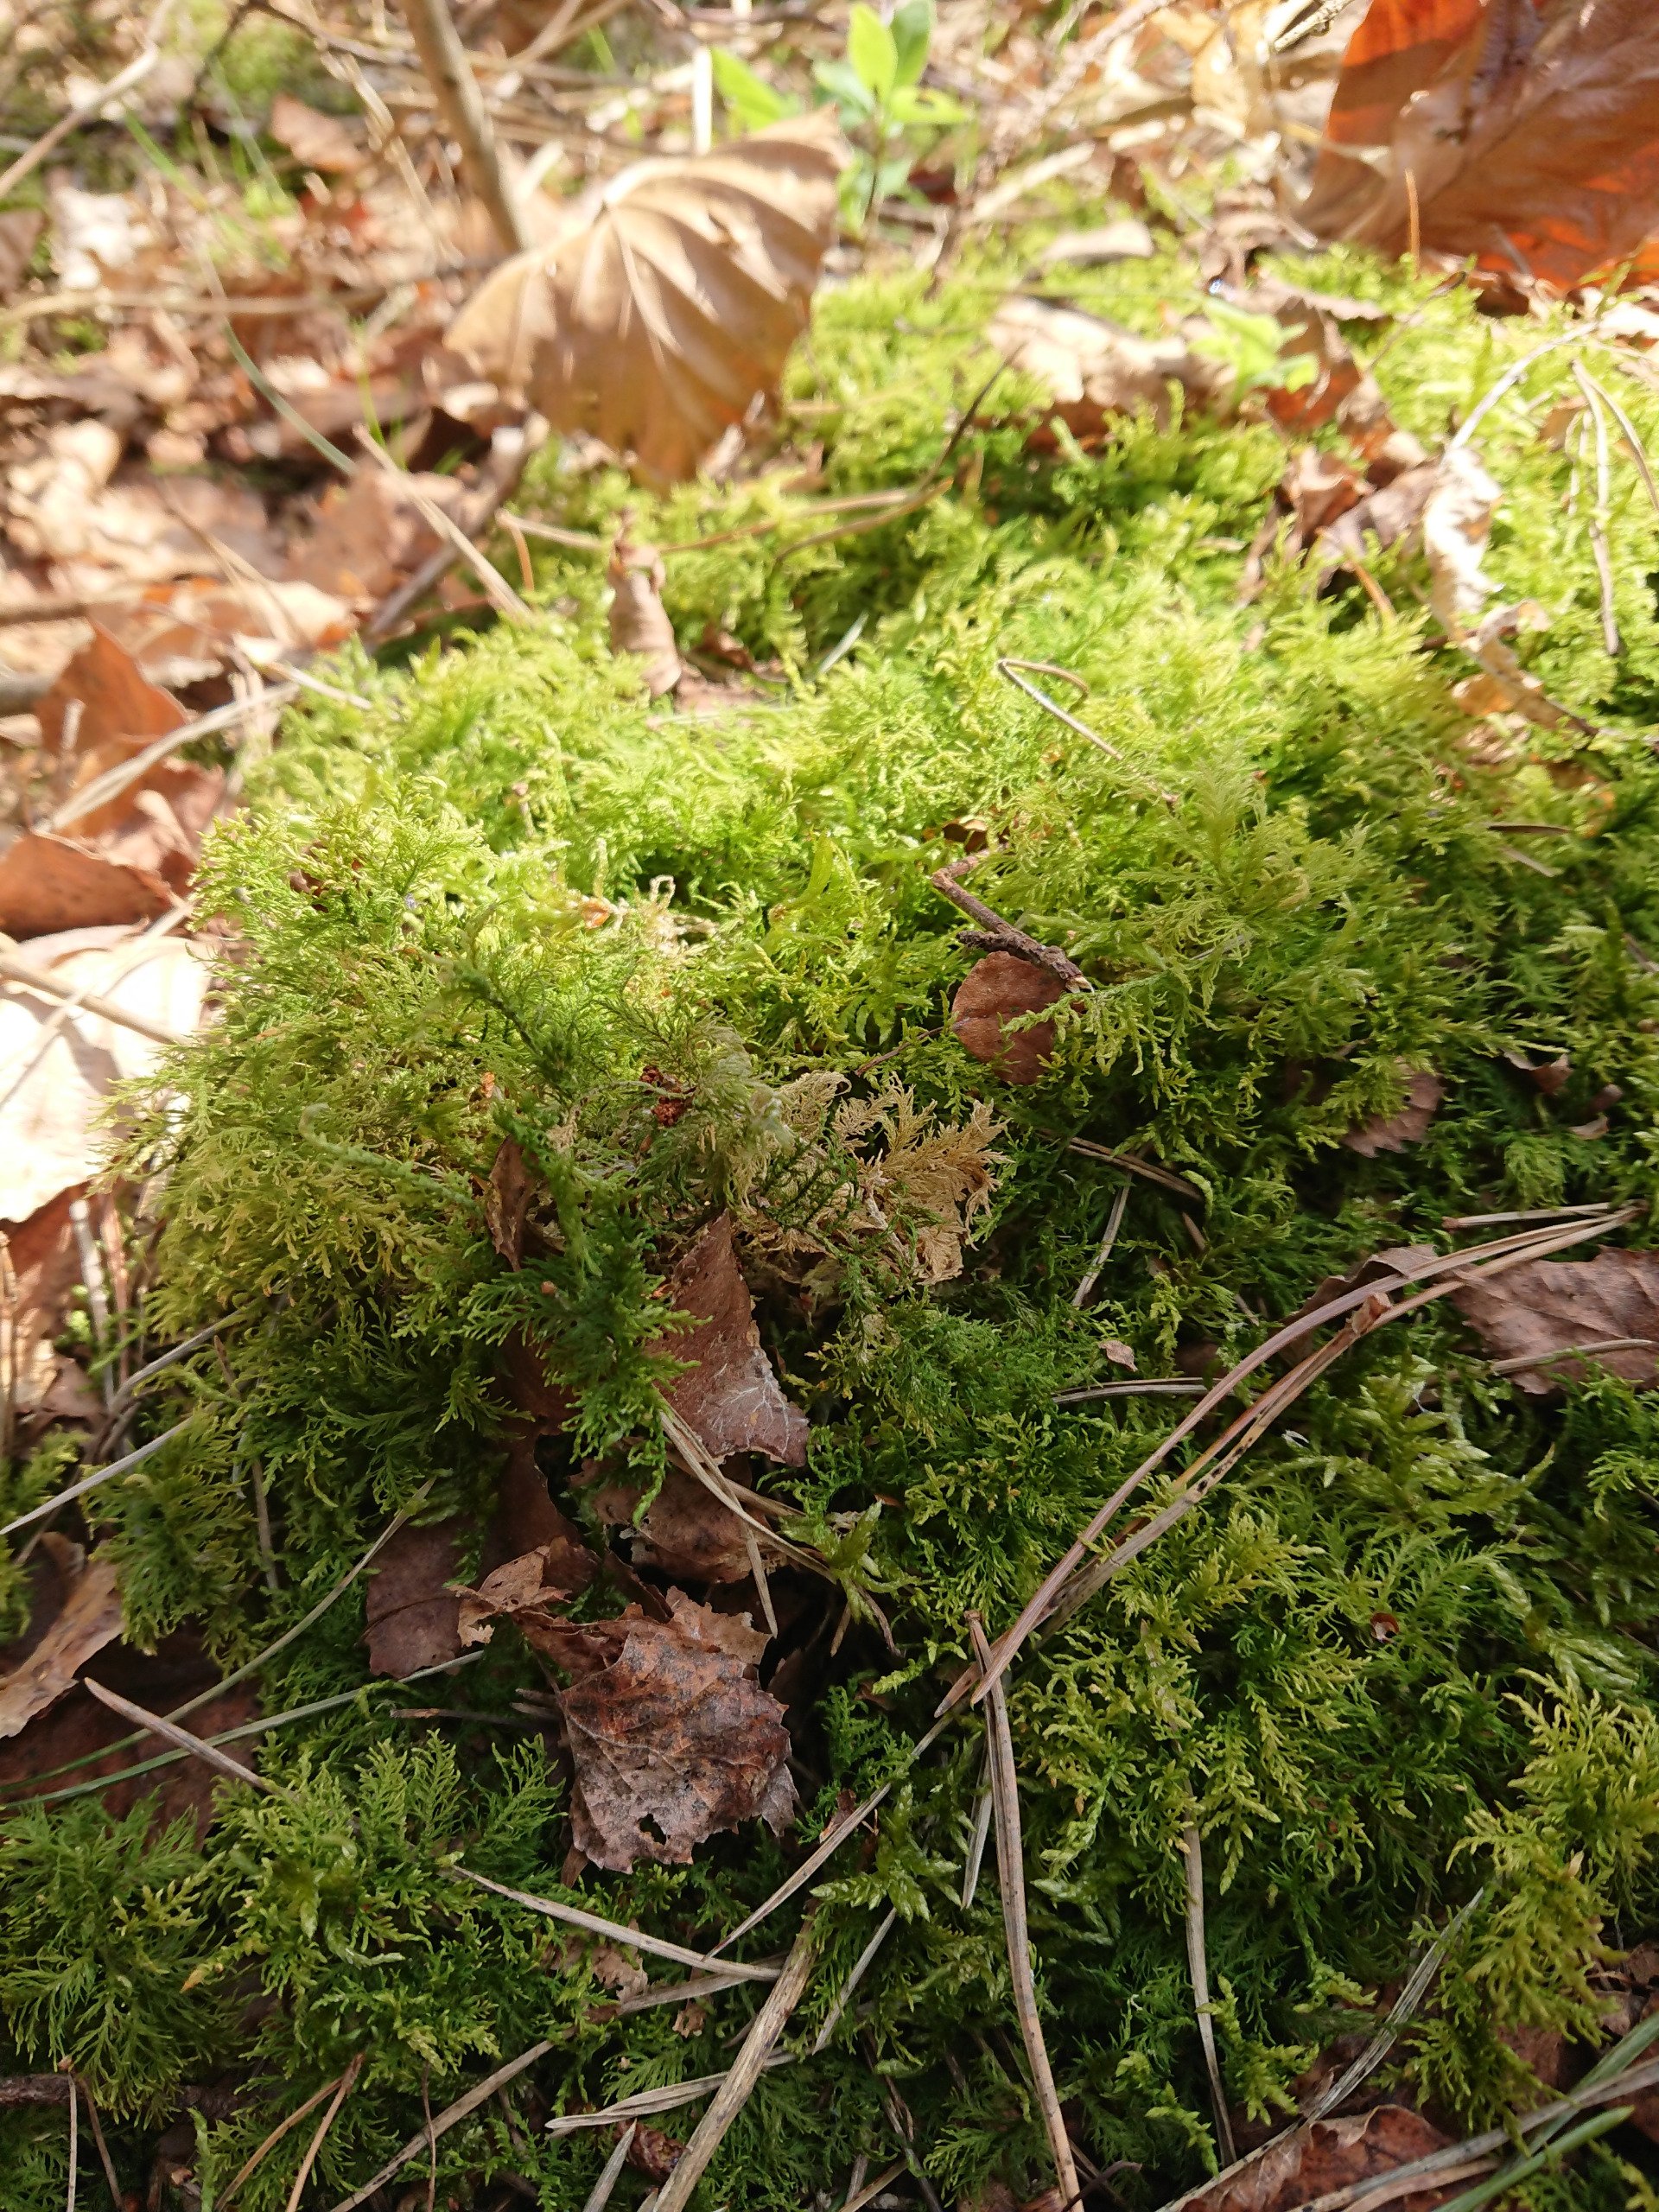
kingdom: Plantae
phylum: Bryophyta
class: Bryopsida
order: Hypnales
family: Thuidiaceae
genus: Thuidium
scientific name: Thuidium tamariscinum
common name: Pryd-bregnemos
